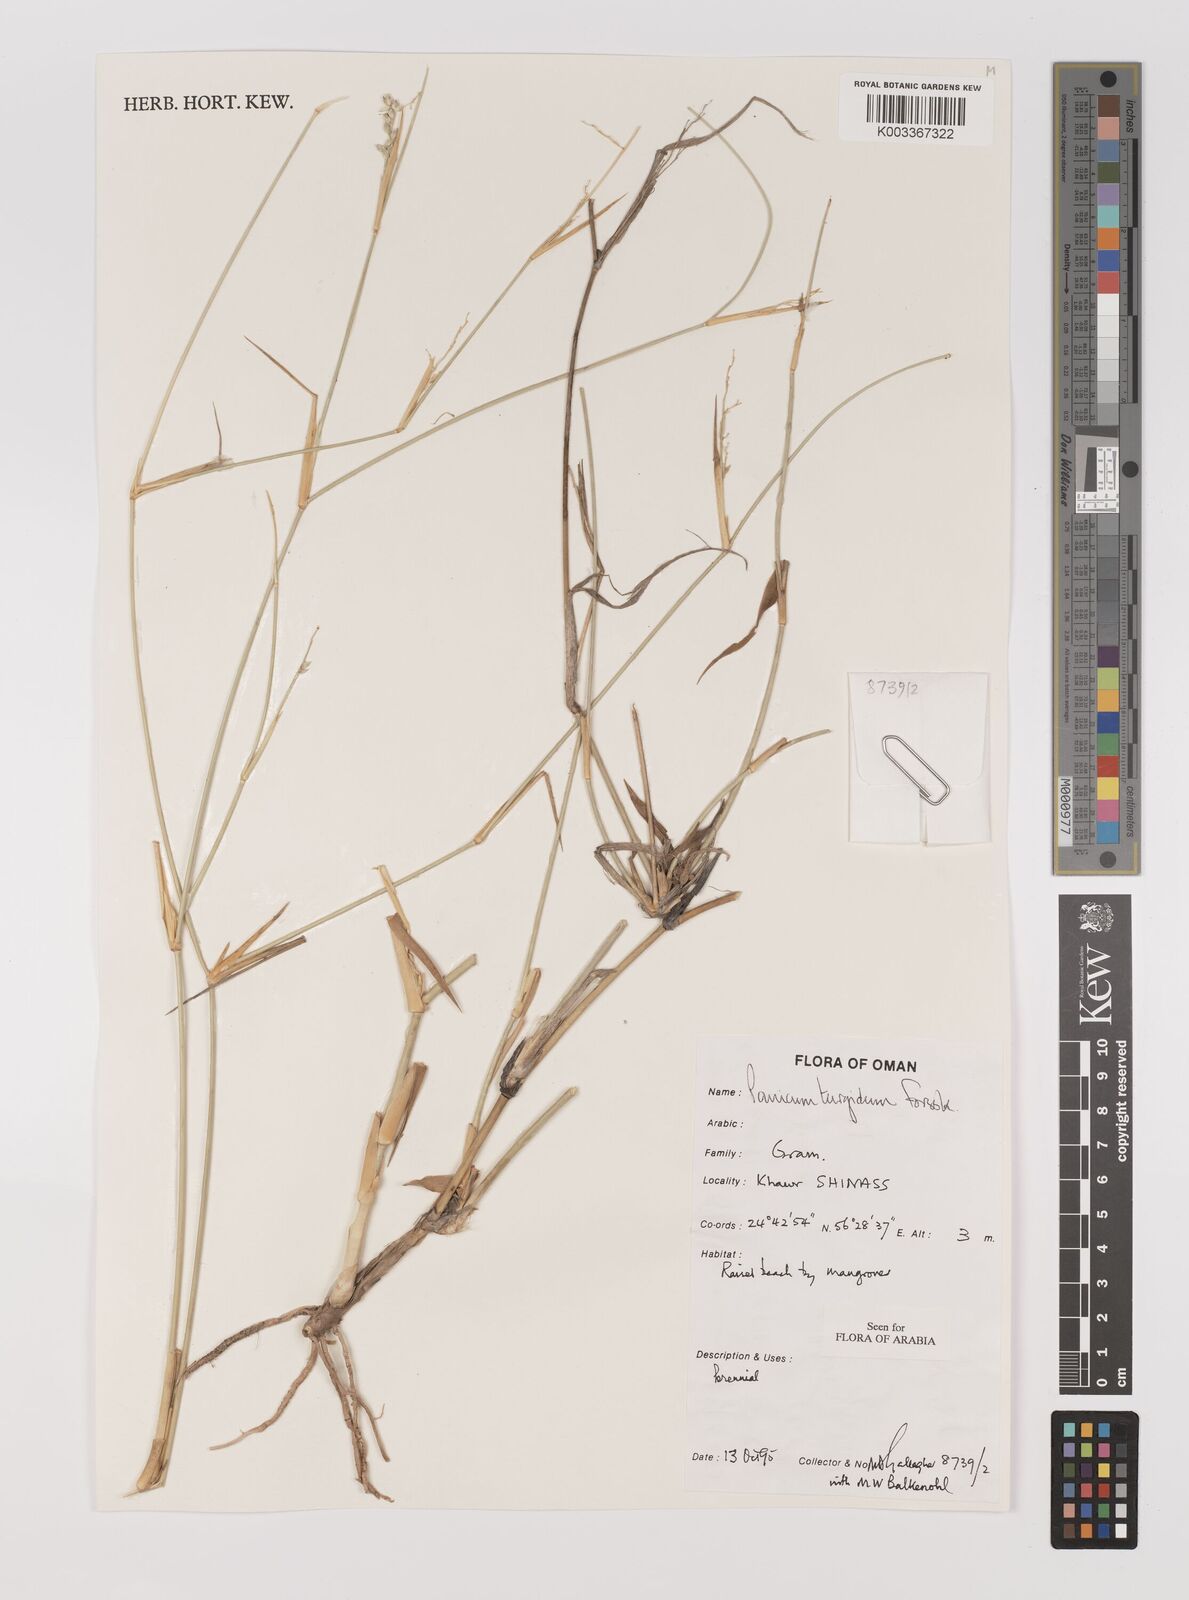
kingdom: Plantae
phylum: Tracheophyta
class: Liliopsida
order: Poales
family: Poaceae
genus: Panicum
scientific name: Panicum turgidum
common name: Desert grass
